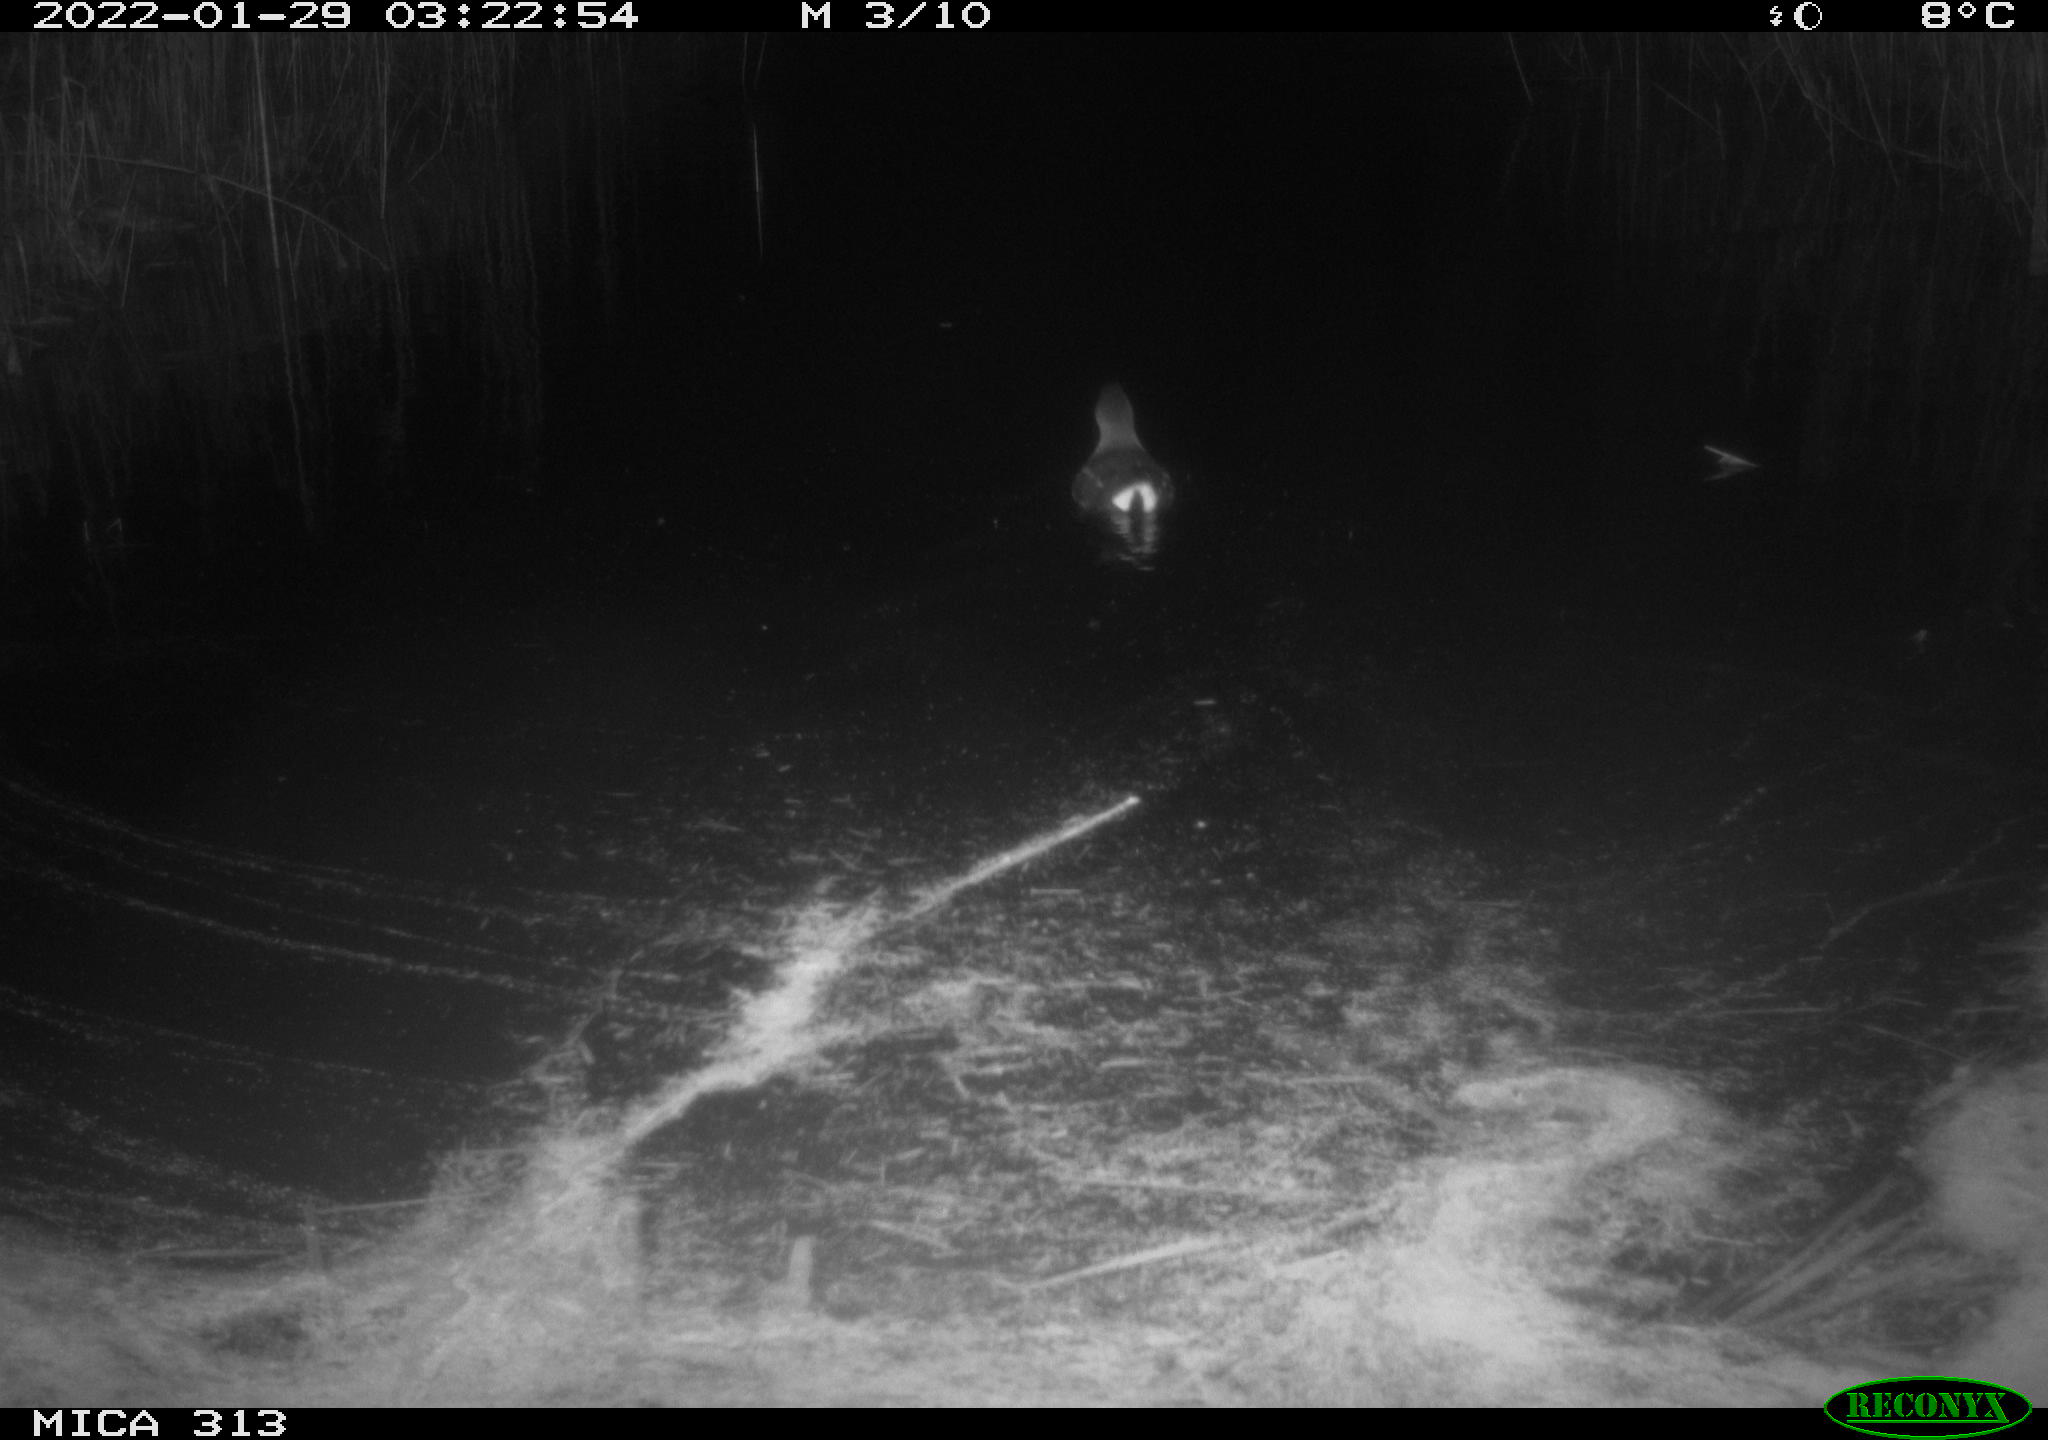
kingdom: Animalia
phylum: Chordata
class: Aves
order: Gruiformes
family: Rallidae
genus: Gallinula
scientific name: Gallinula chloropus
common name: Common moorhen
